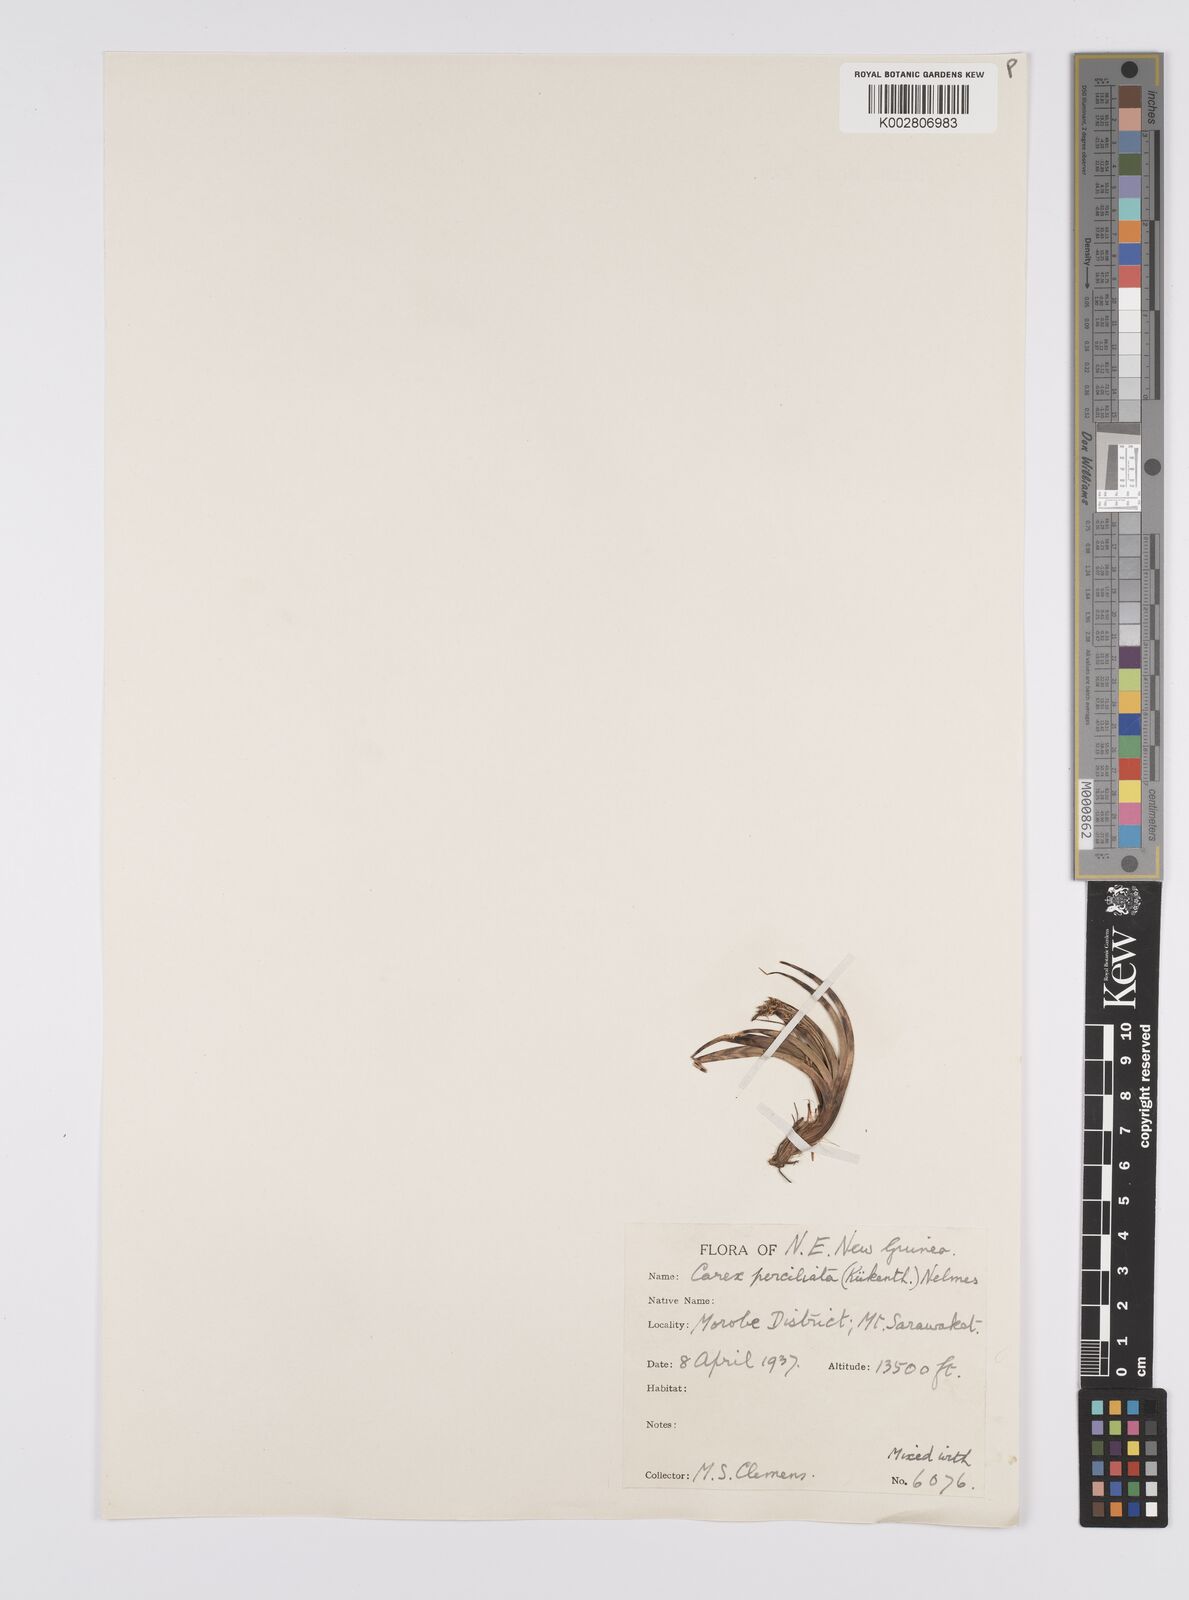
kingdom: Plantae
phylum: Tracheophyta
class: Liliopsida
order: Poales
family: Cyperaceae
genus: Carex
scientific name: Carex breviculmis
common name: Asian shortstem sedge
